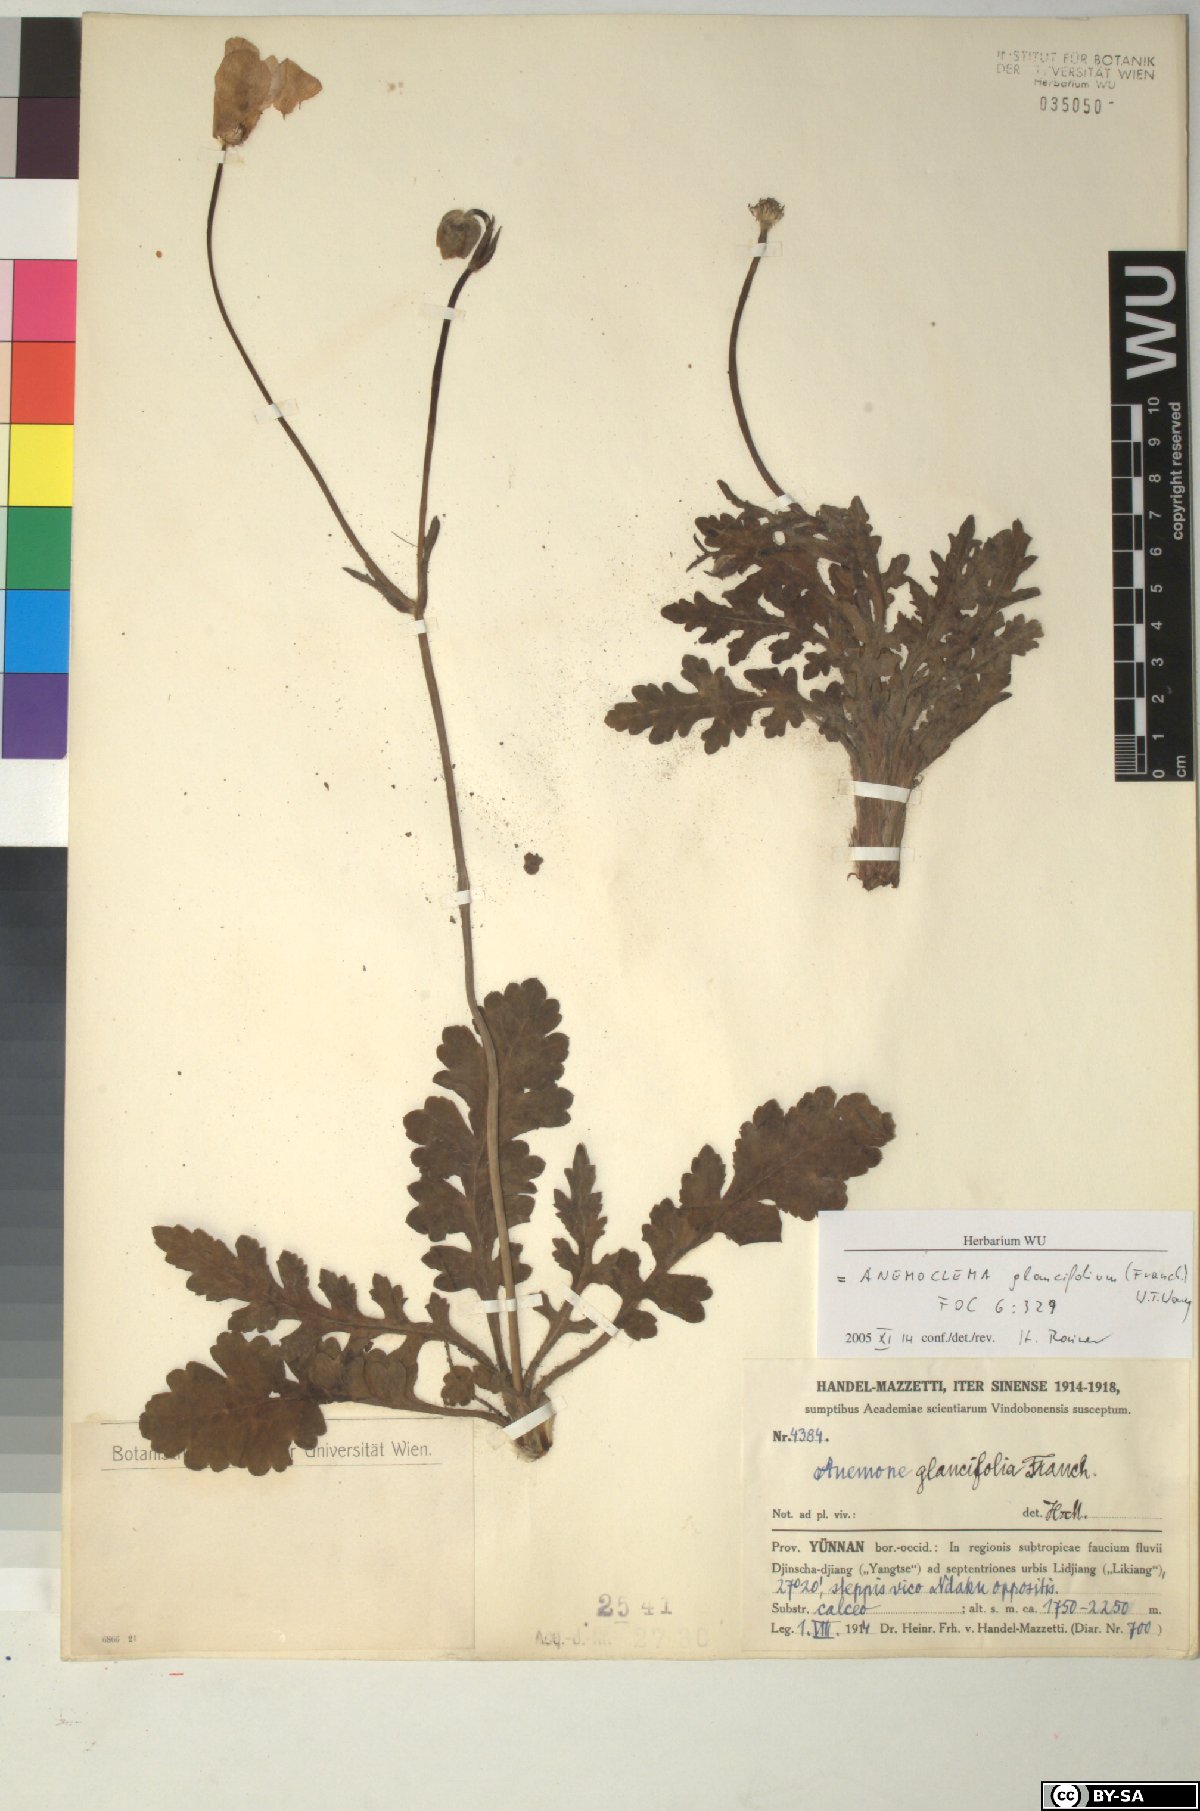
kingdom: Plantae
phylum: Tracheophyta
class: Magnoliopsida
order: Ranunculales
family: Ranunculaceae
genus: Anemone
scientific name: Anemone glaucifolia
